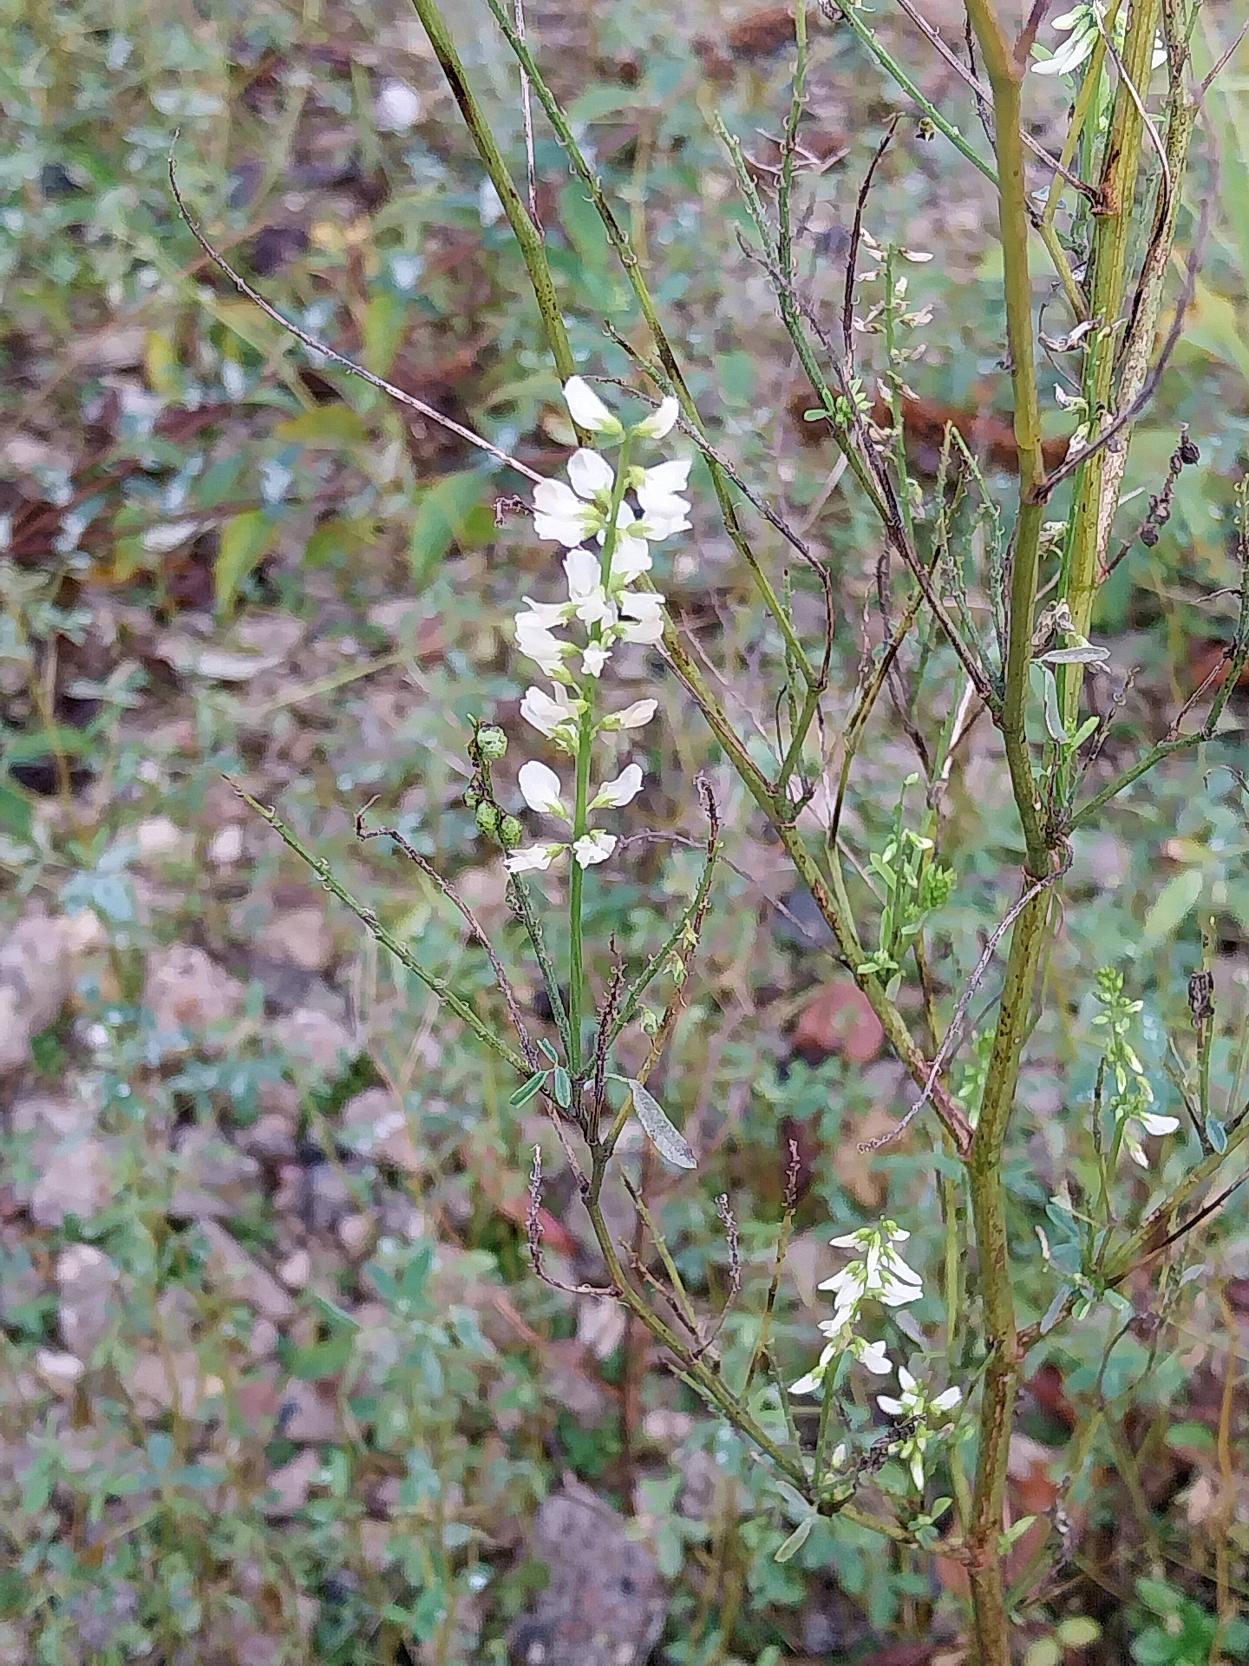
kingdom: Plantae
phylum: Tracheophyta
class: Magnoliopsida
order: Fabales
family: Fabaceae
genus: Melilotus
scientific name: Melilotus albus
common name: Hvid stenkløver
